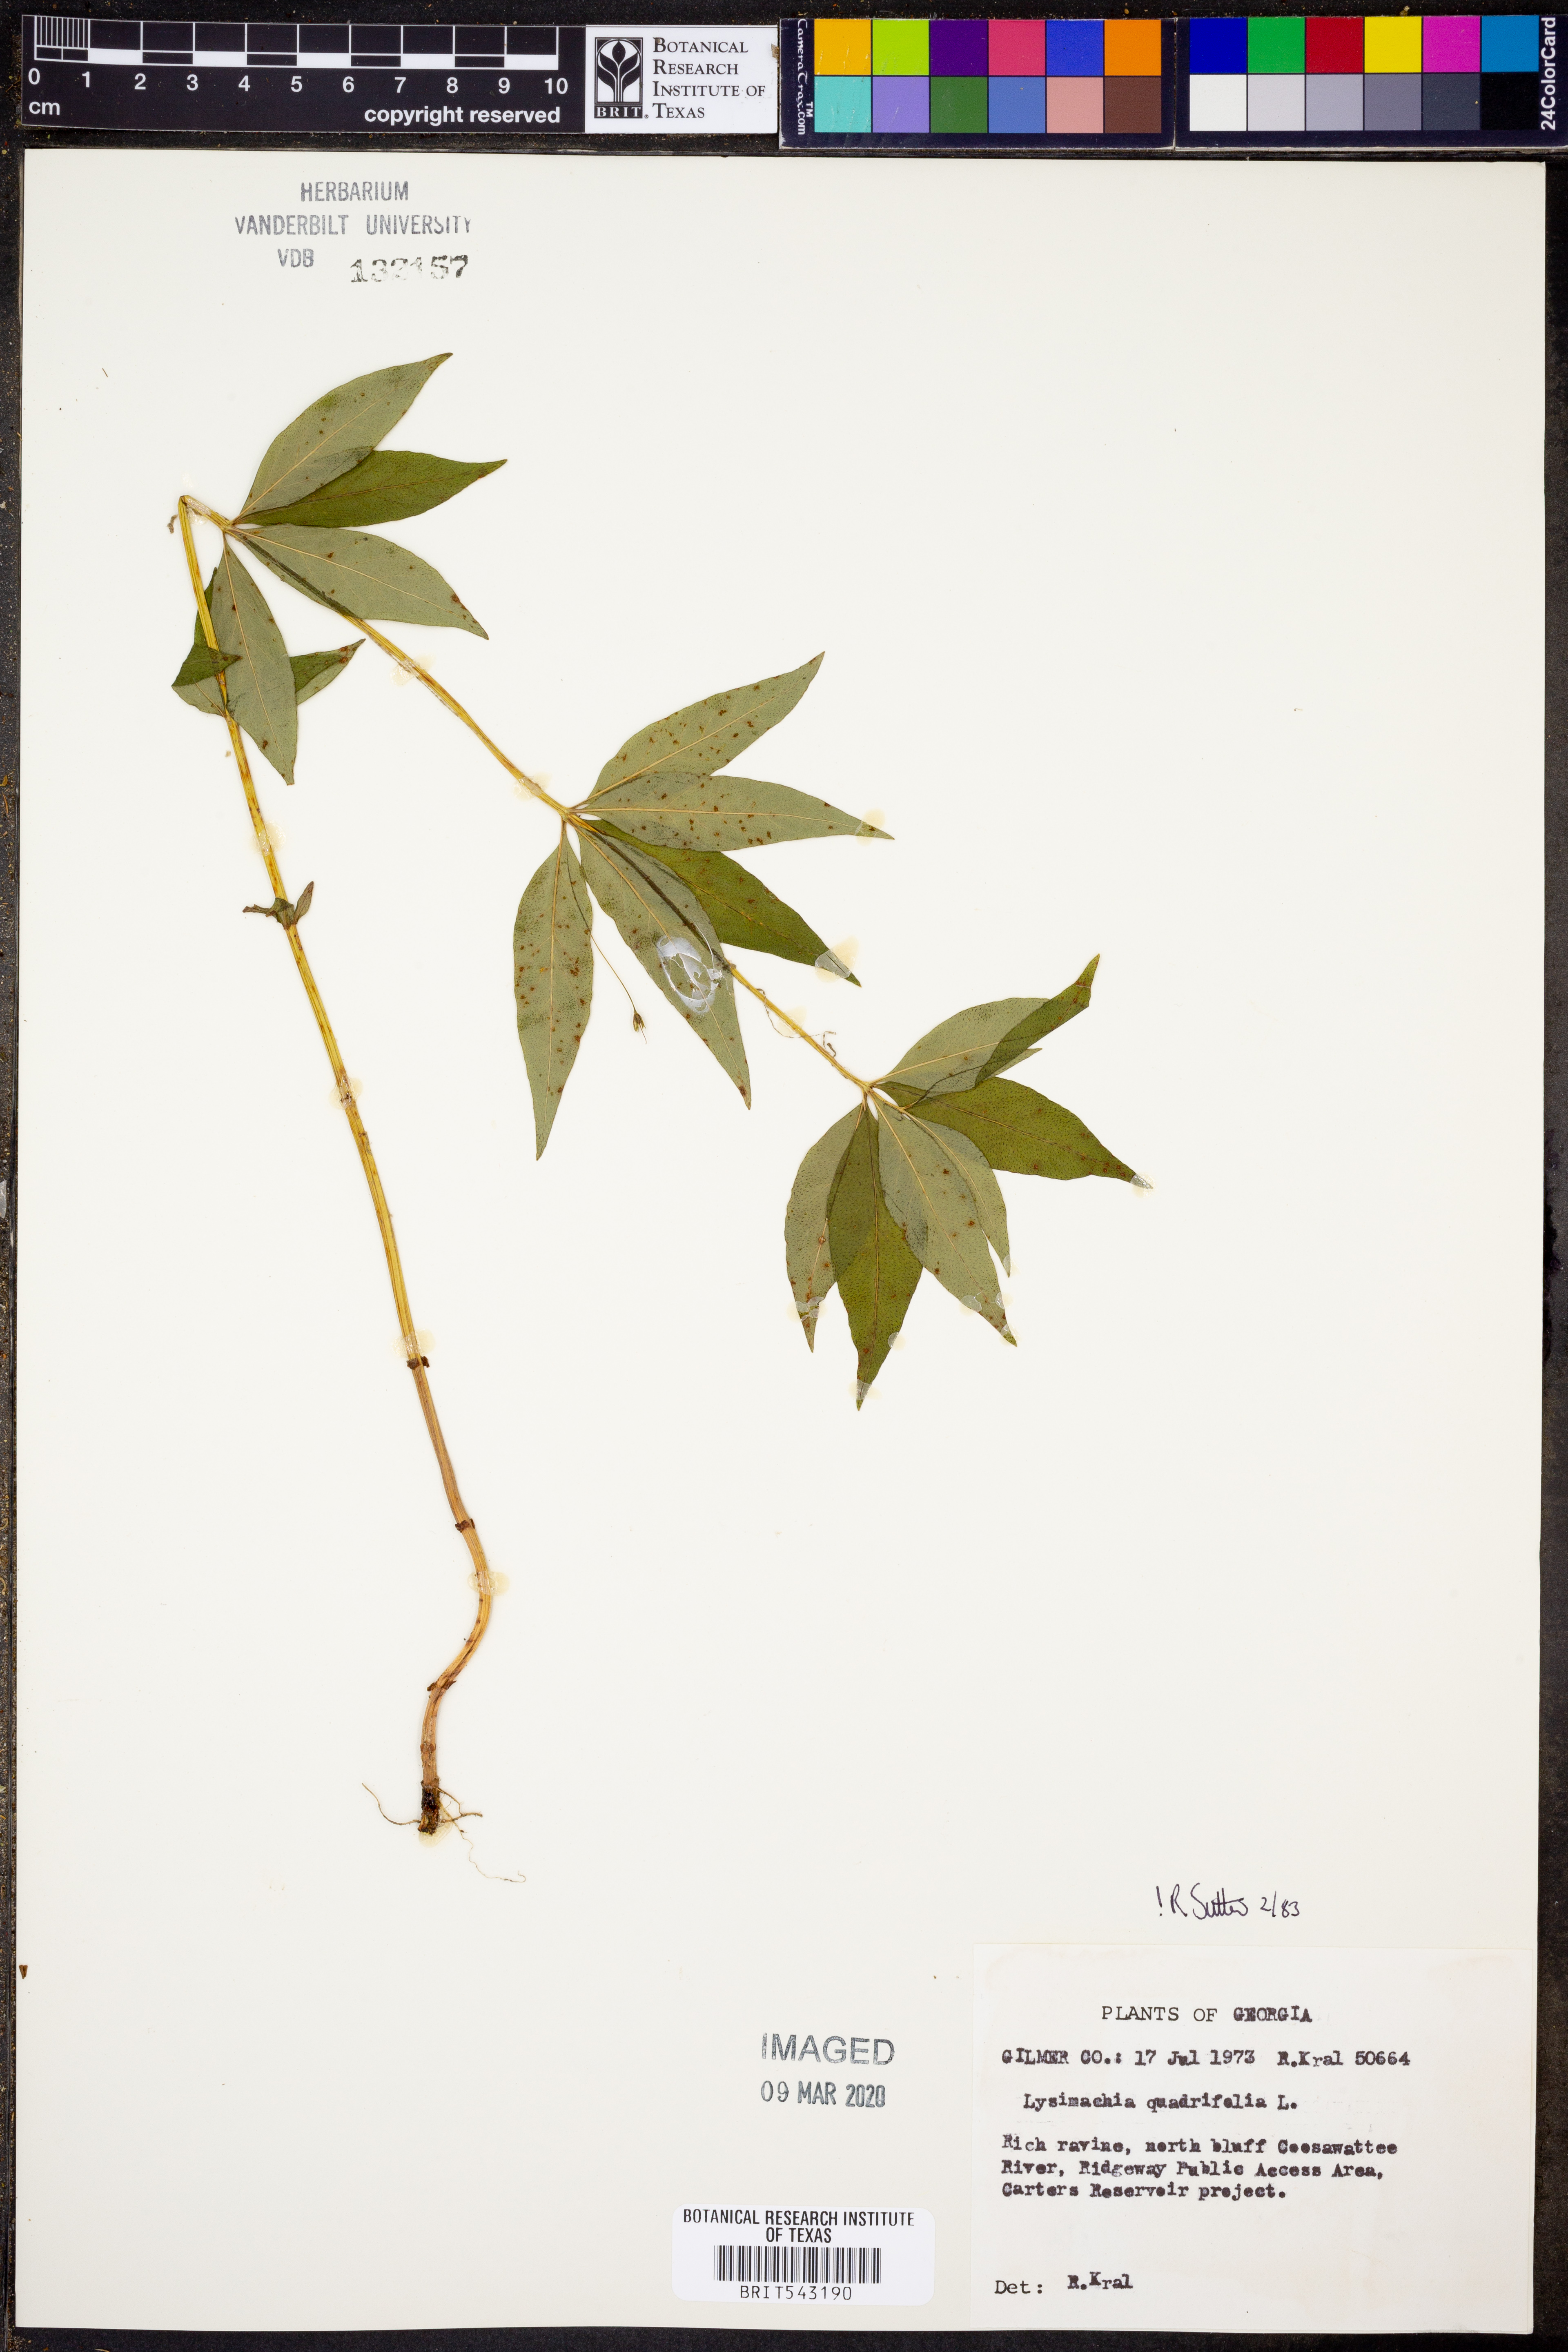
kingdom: Plantae
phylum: Tracheophyta
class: Magnoliopsida
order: Ericales
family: Primulaceae
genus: Lysimachia
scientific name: Lysimachia quadrifolia
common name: Whorled loosestrife
